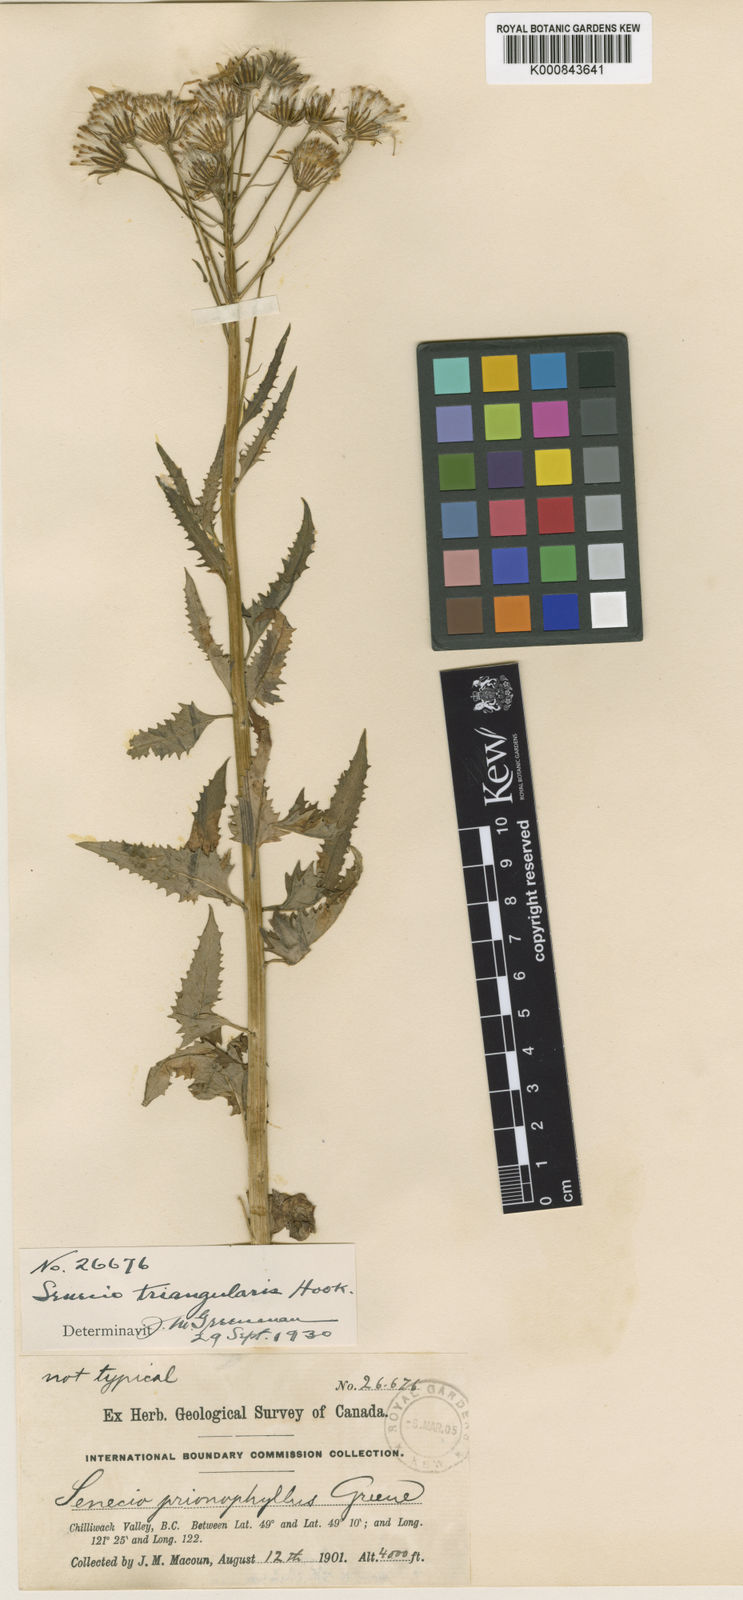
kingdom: Plantae
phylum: Tracheophyta
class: Magnoliopsida
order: Asterales
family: Asteraceae
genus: Senecio
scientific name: Senecio triangularis
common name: Arrowleaf butterweed
